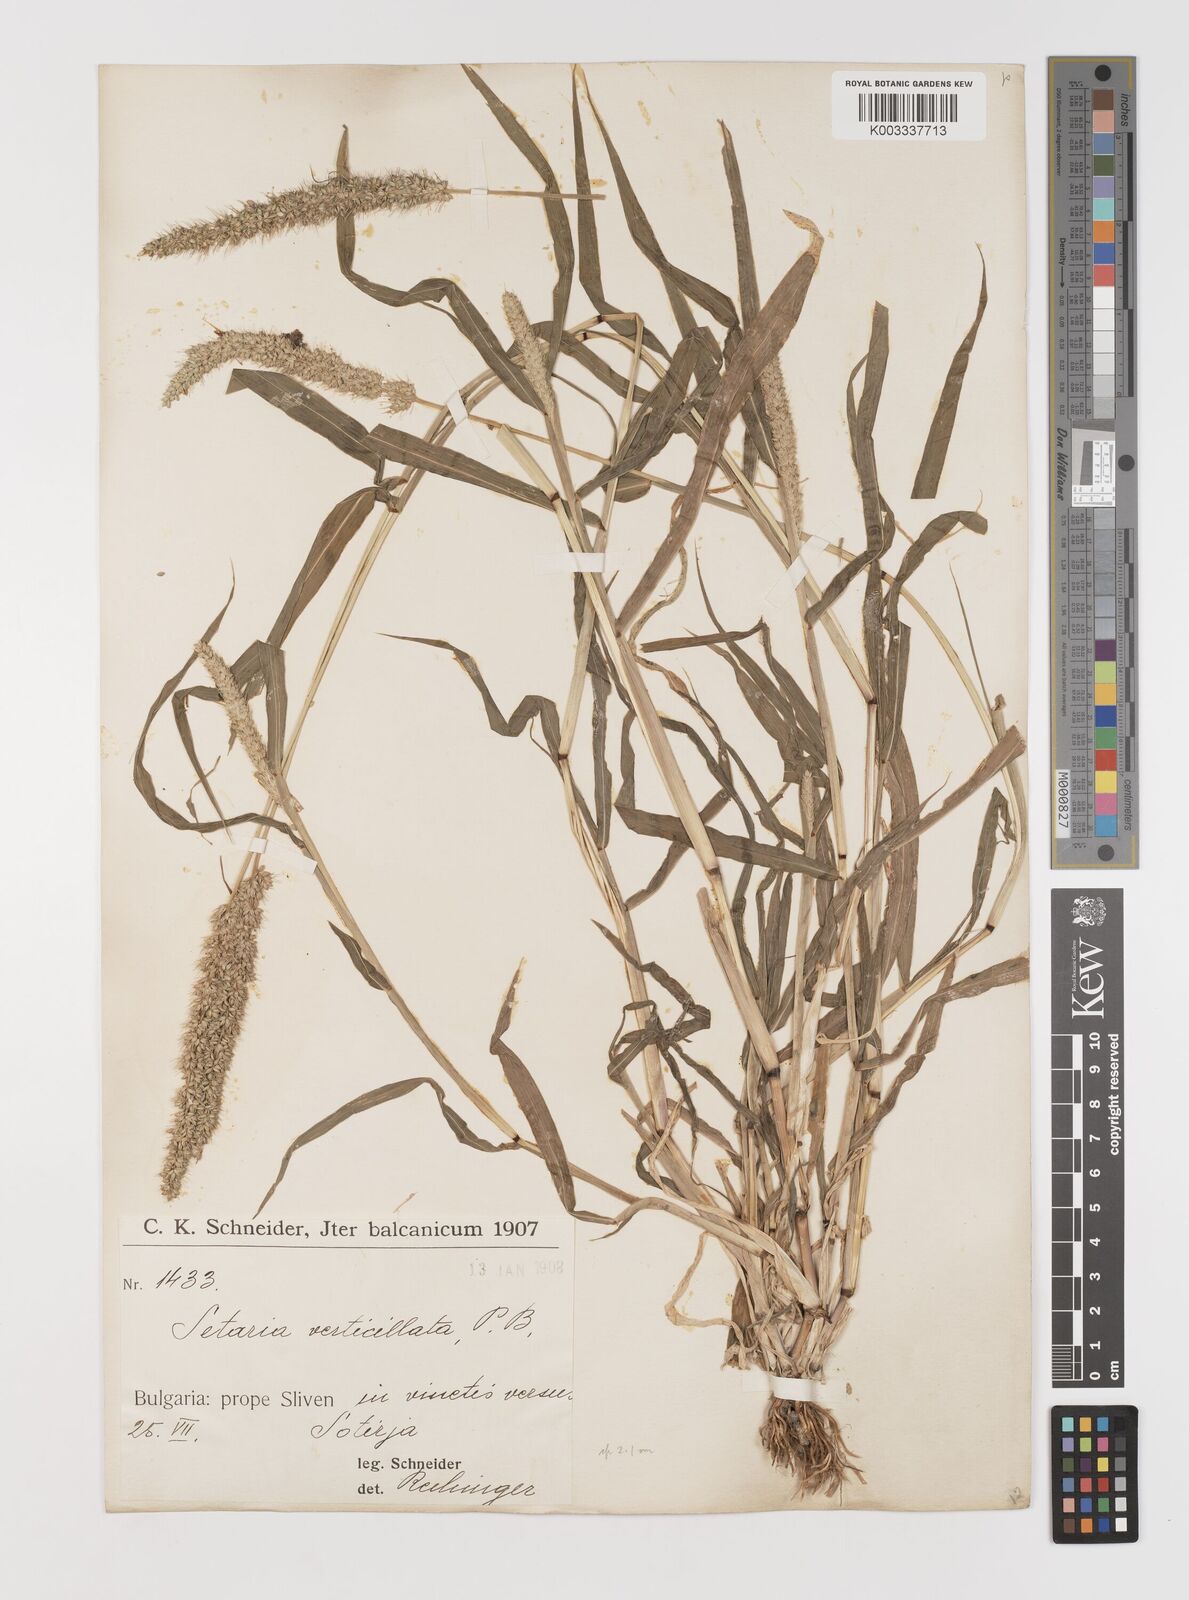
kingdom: Plantae
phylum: Tracheophyta
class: Liliopsida
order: Poales
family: Poaceae
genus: Setaria
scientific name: Setaria verticillata
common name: Hooked bristlegrass
